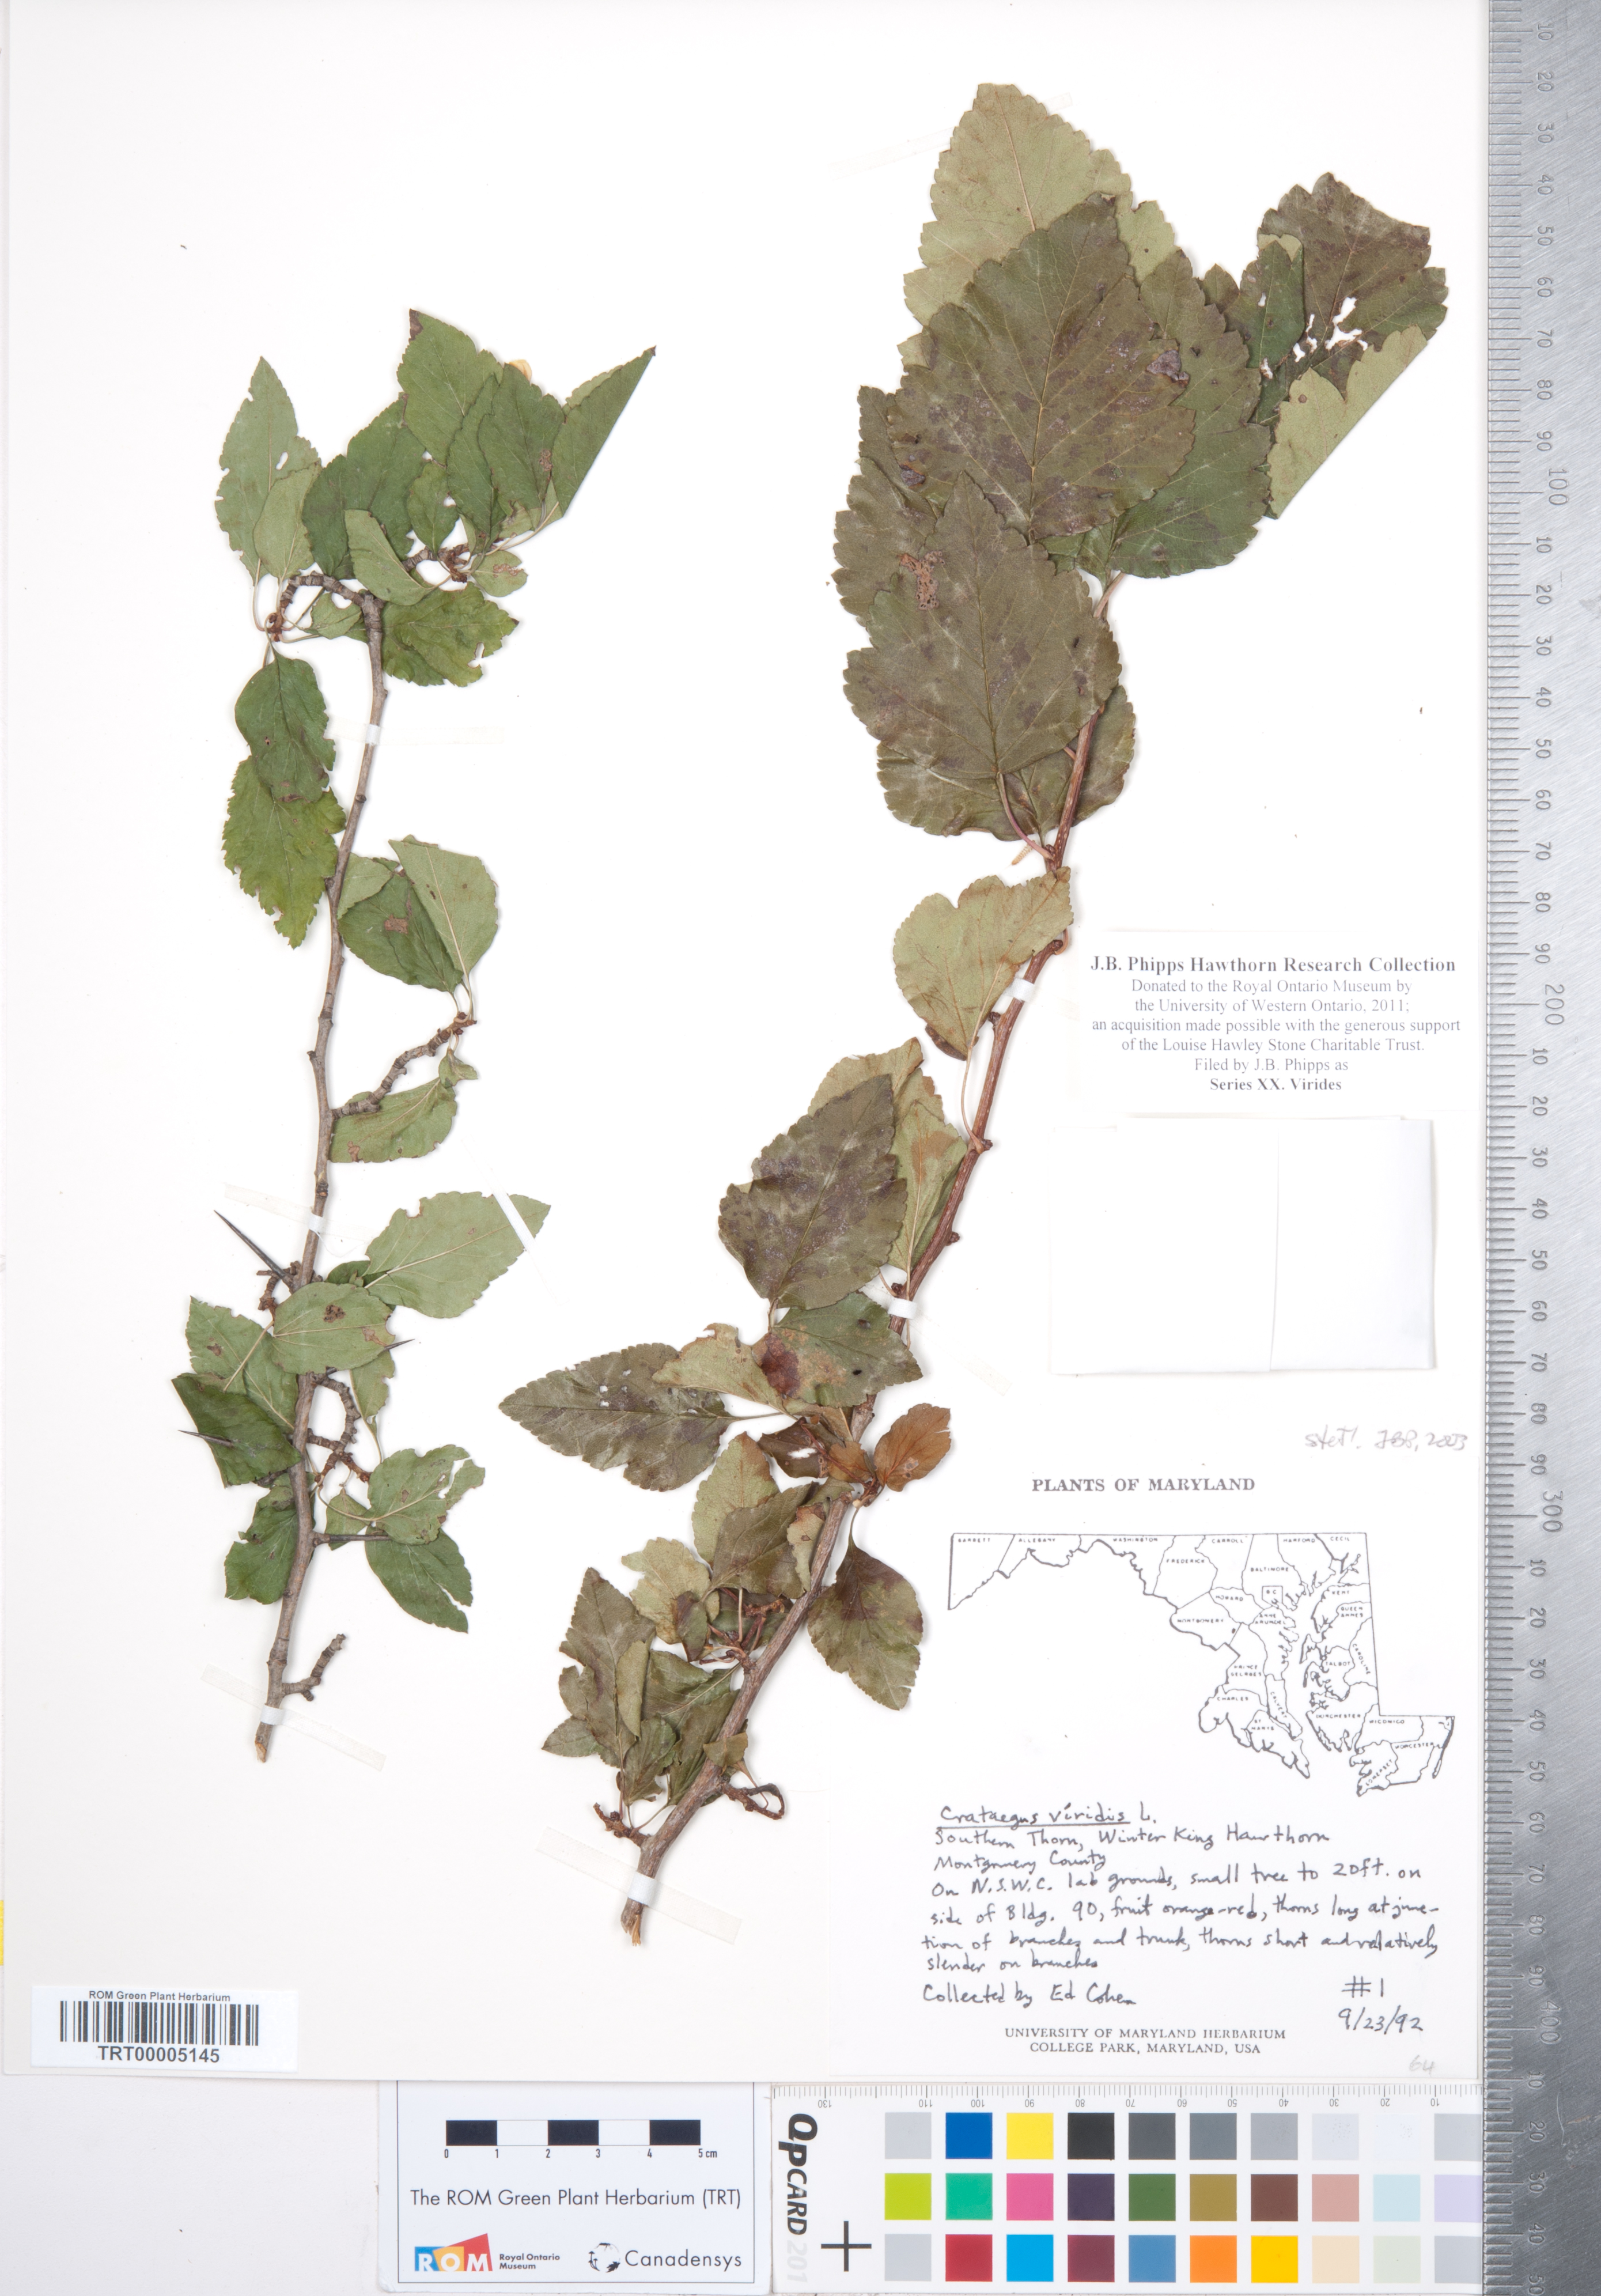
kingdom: Plantae
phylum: Tracheophyta
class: Magnoliopsida
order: Rosales
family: Rosaceae
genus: Crataegus
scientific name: Crataegus
